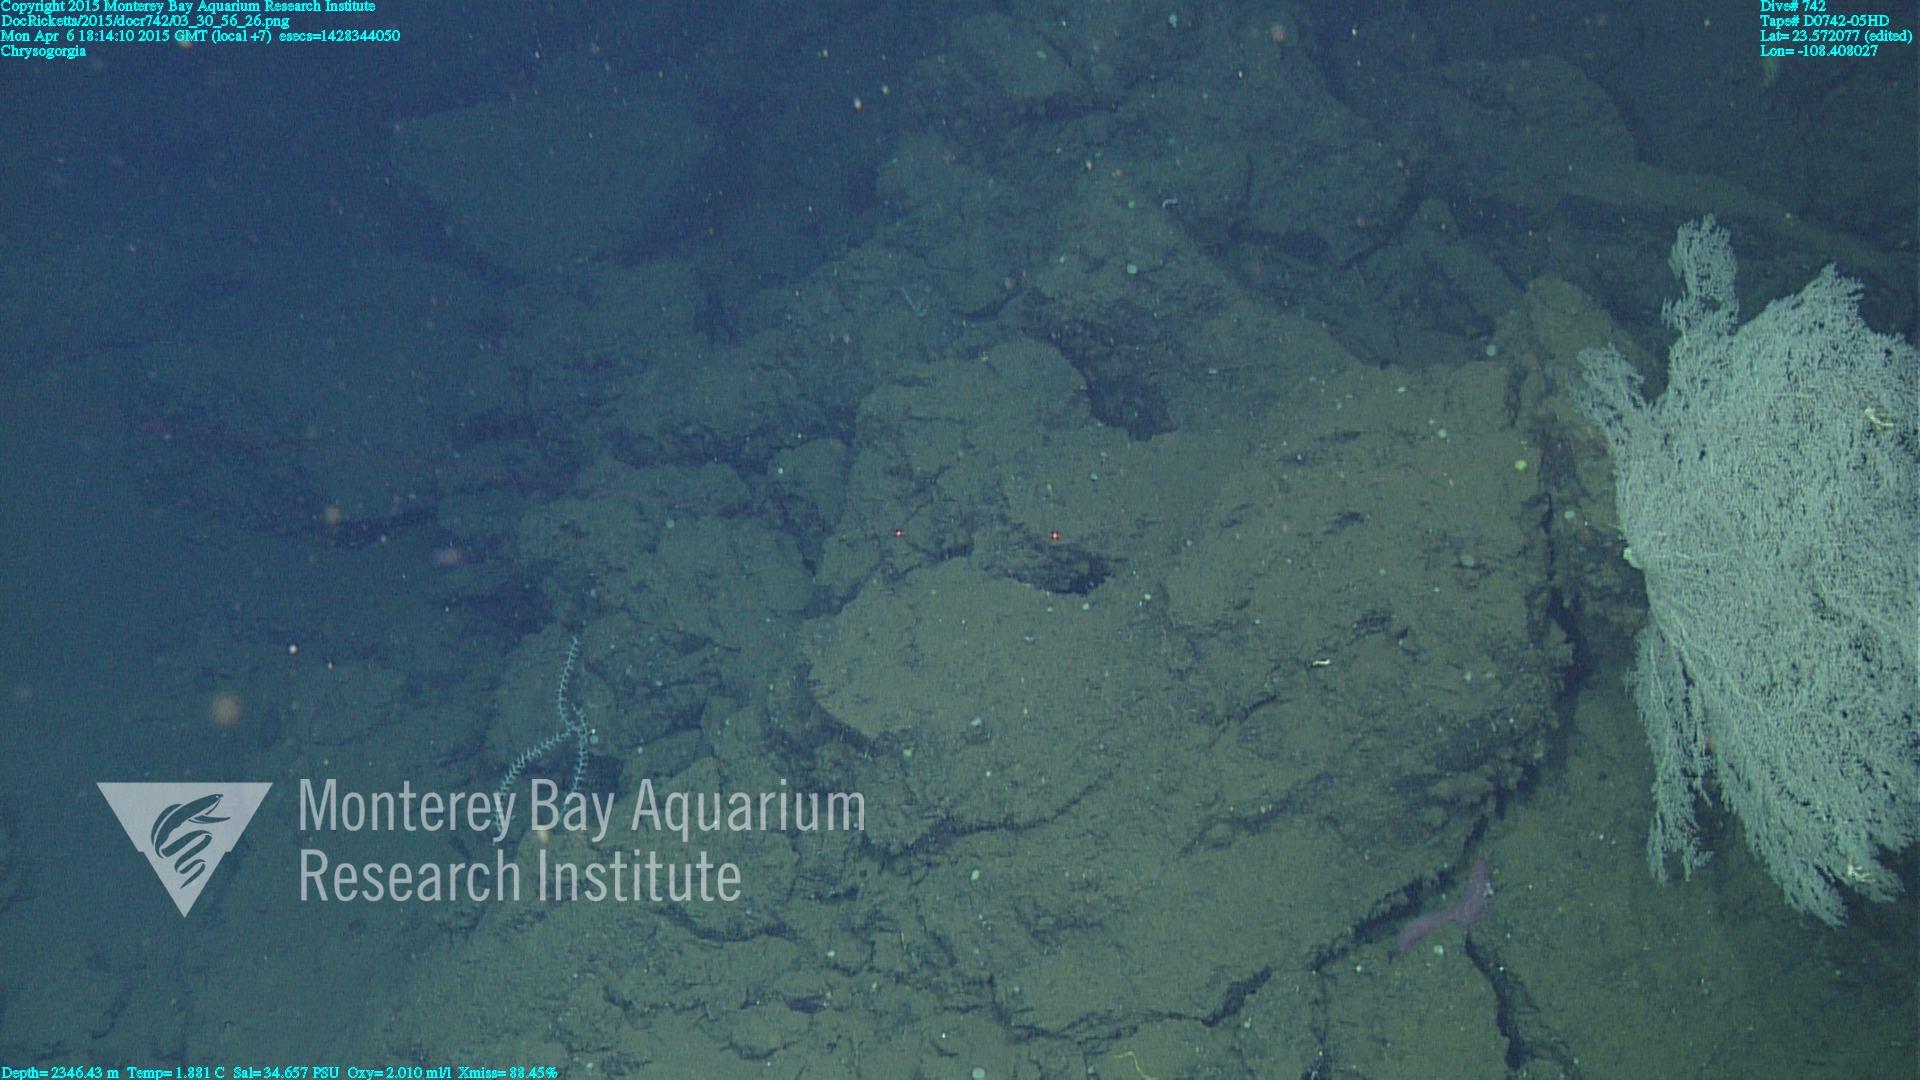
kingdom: Animalia
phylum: Cnidaria
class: Anthozoa
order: Scleralcyonacea
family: Chrysogorgiidae
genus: Chrysogorgia
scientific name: Chrysogorgia
